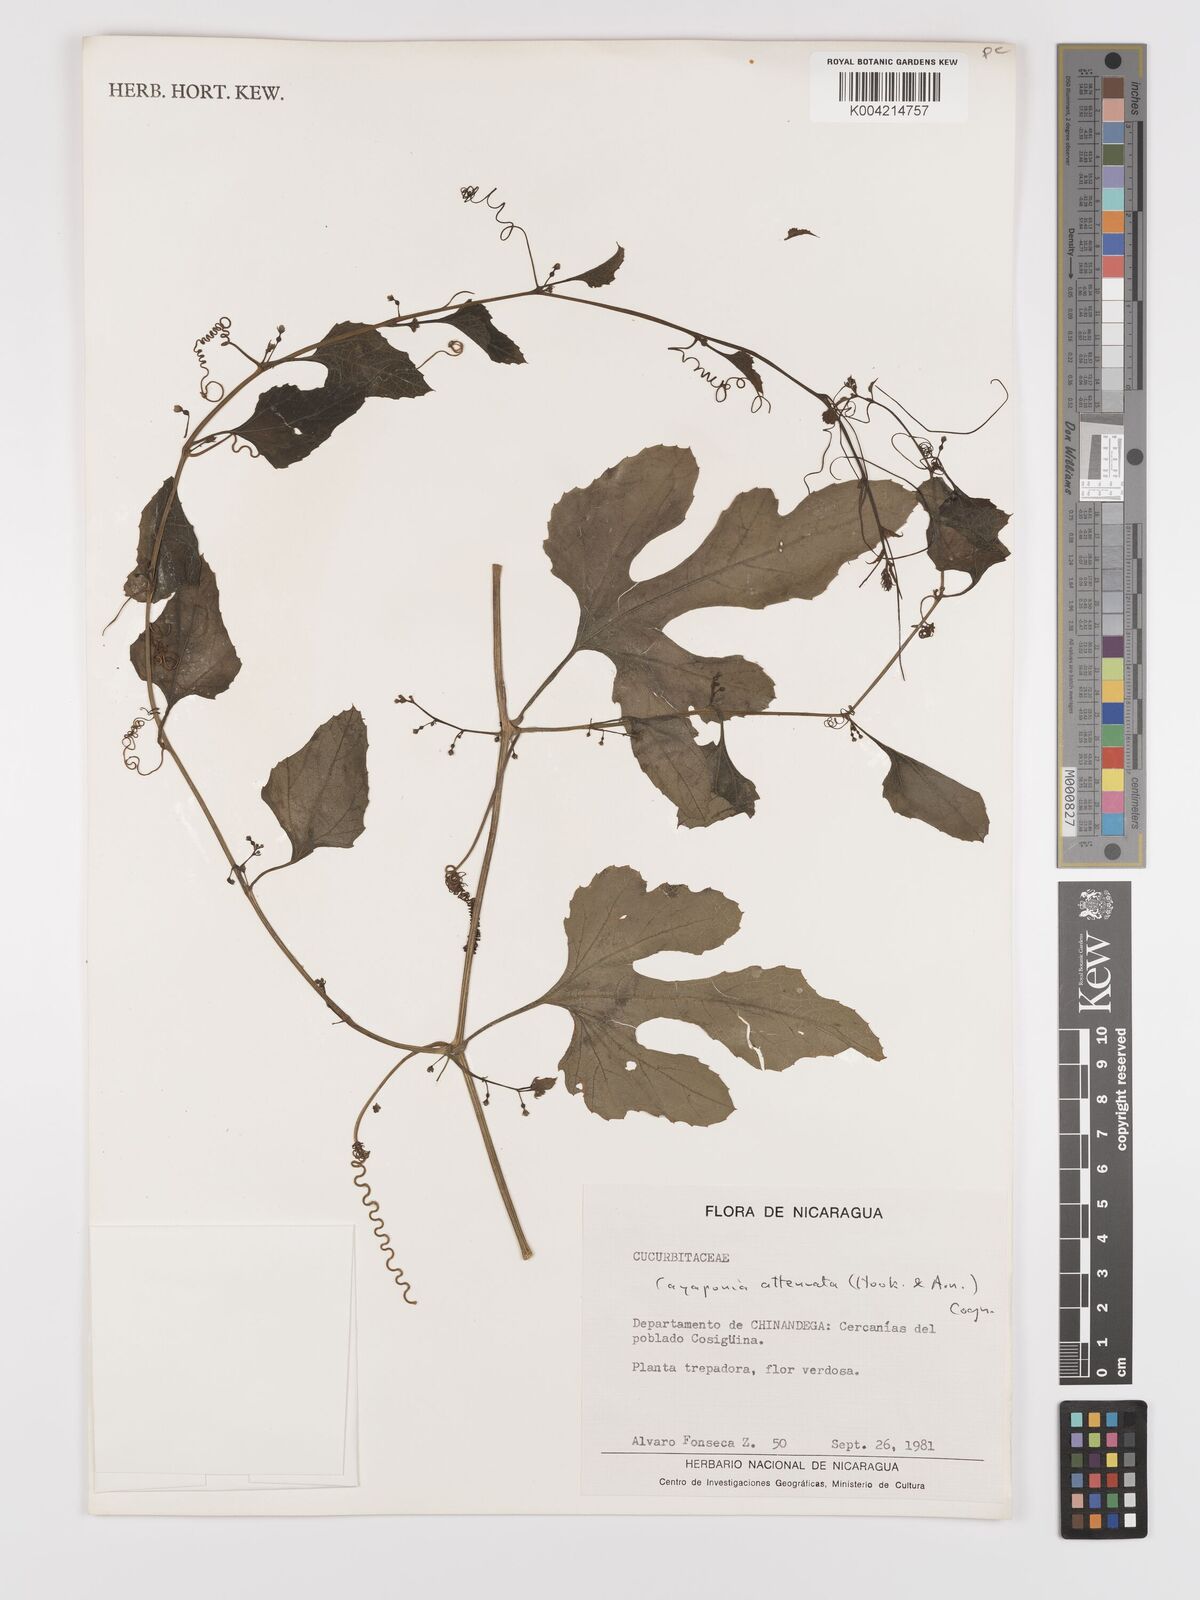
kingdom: Plantae
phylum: Tracheophyta
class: Magnoliopsida
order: Cucurbitales
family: Cucurbitaceae
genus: Cayaponia
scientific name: Cayaponia attenuata
